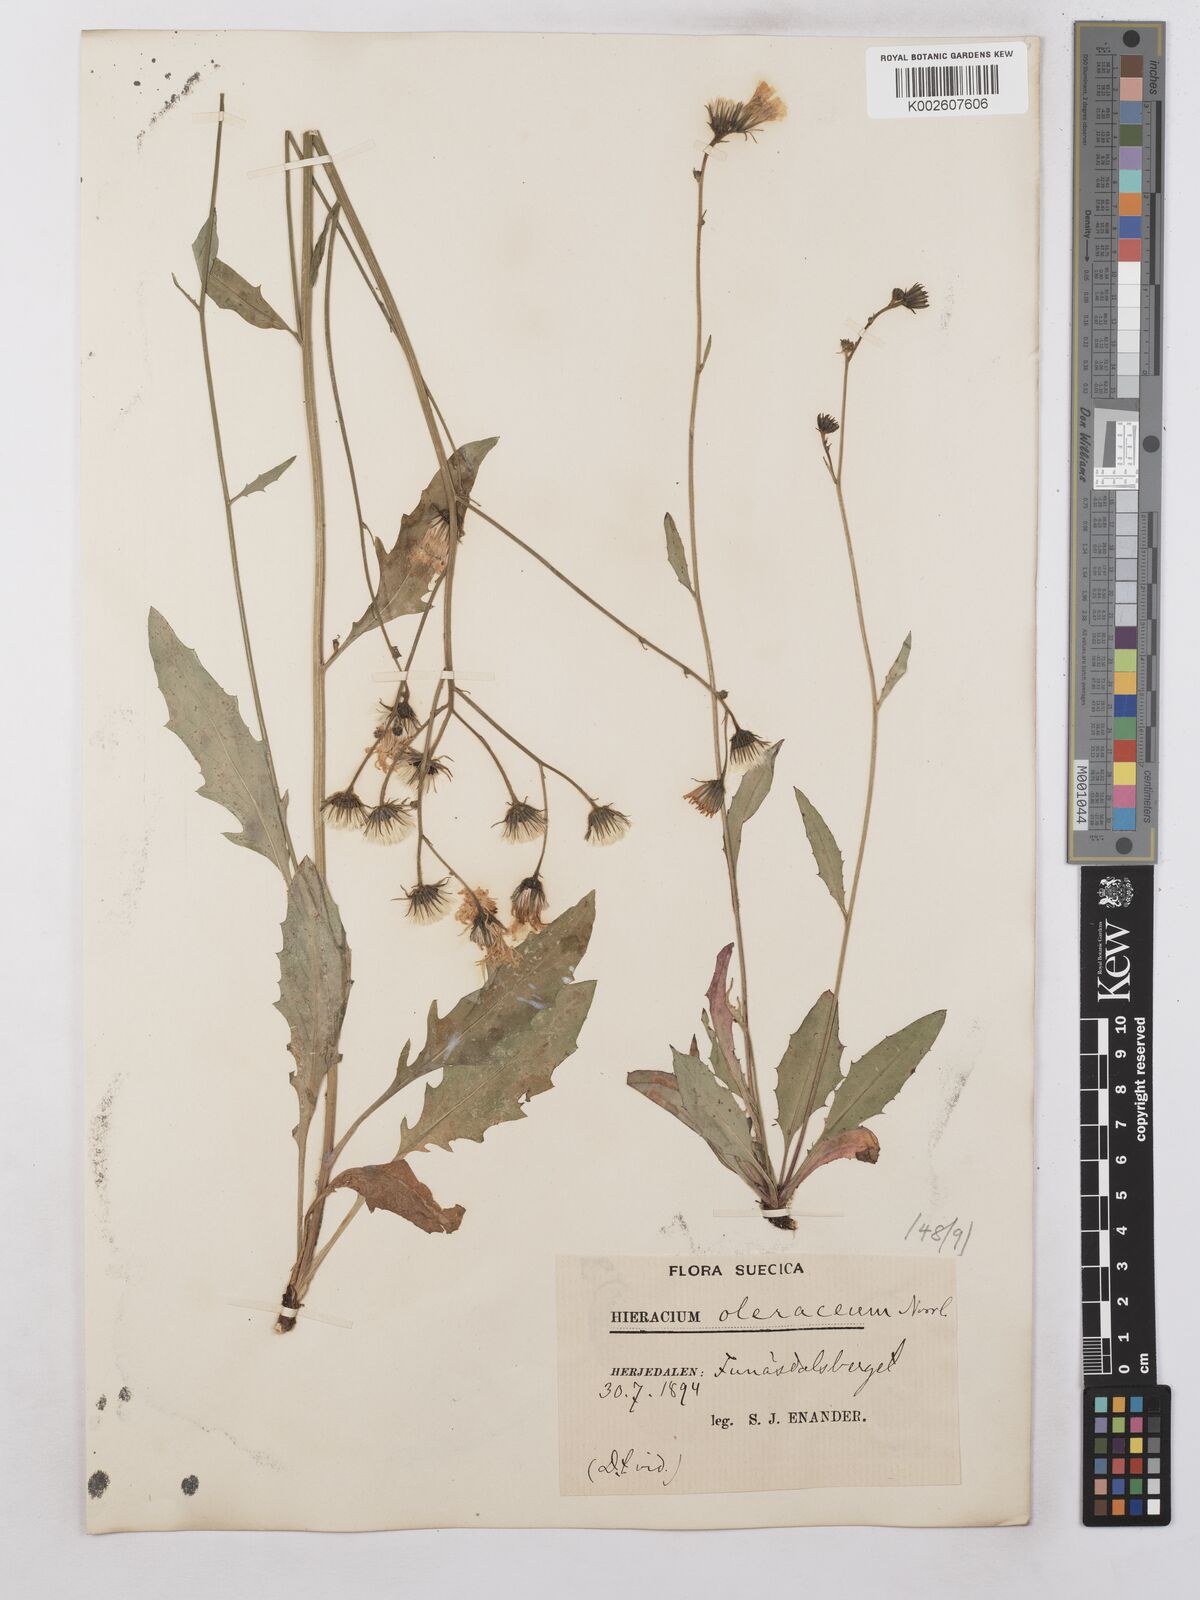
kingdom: Plantae
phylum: Tracheophyta
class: Magnoliopsida
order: Asterales
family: Asteraceae
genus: Hieracium
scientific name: Hieracium subramosum
